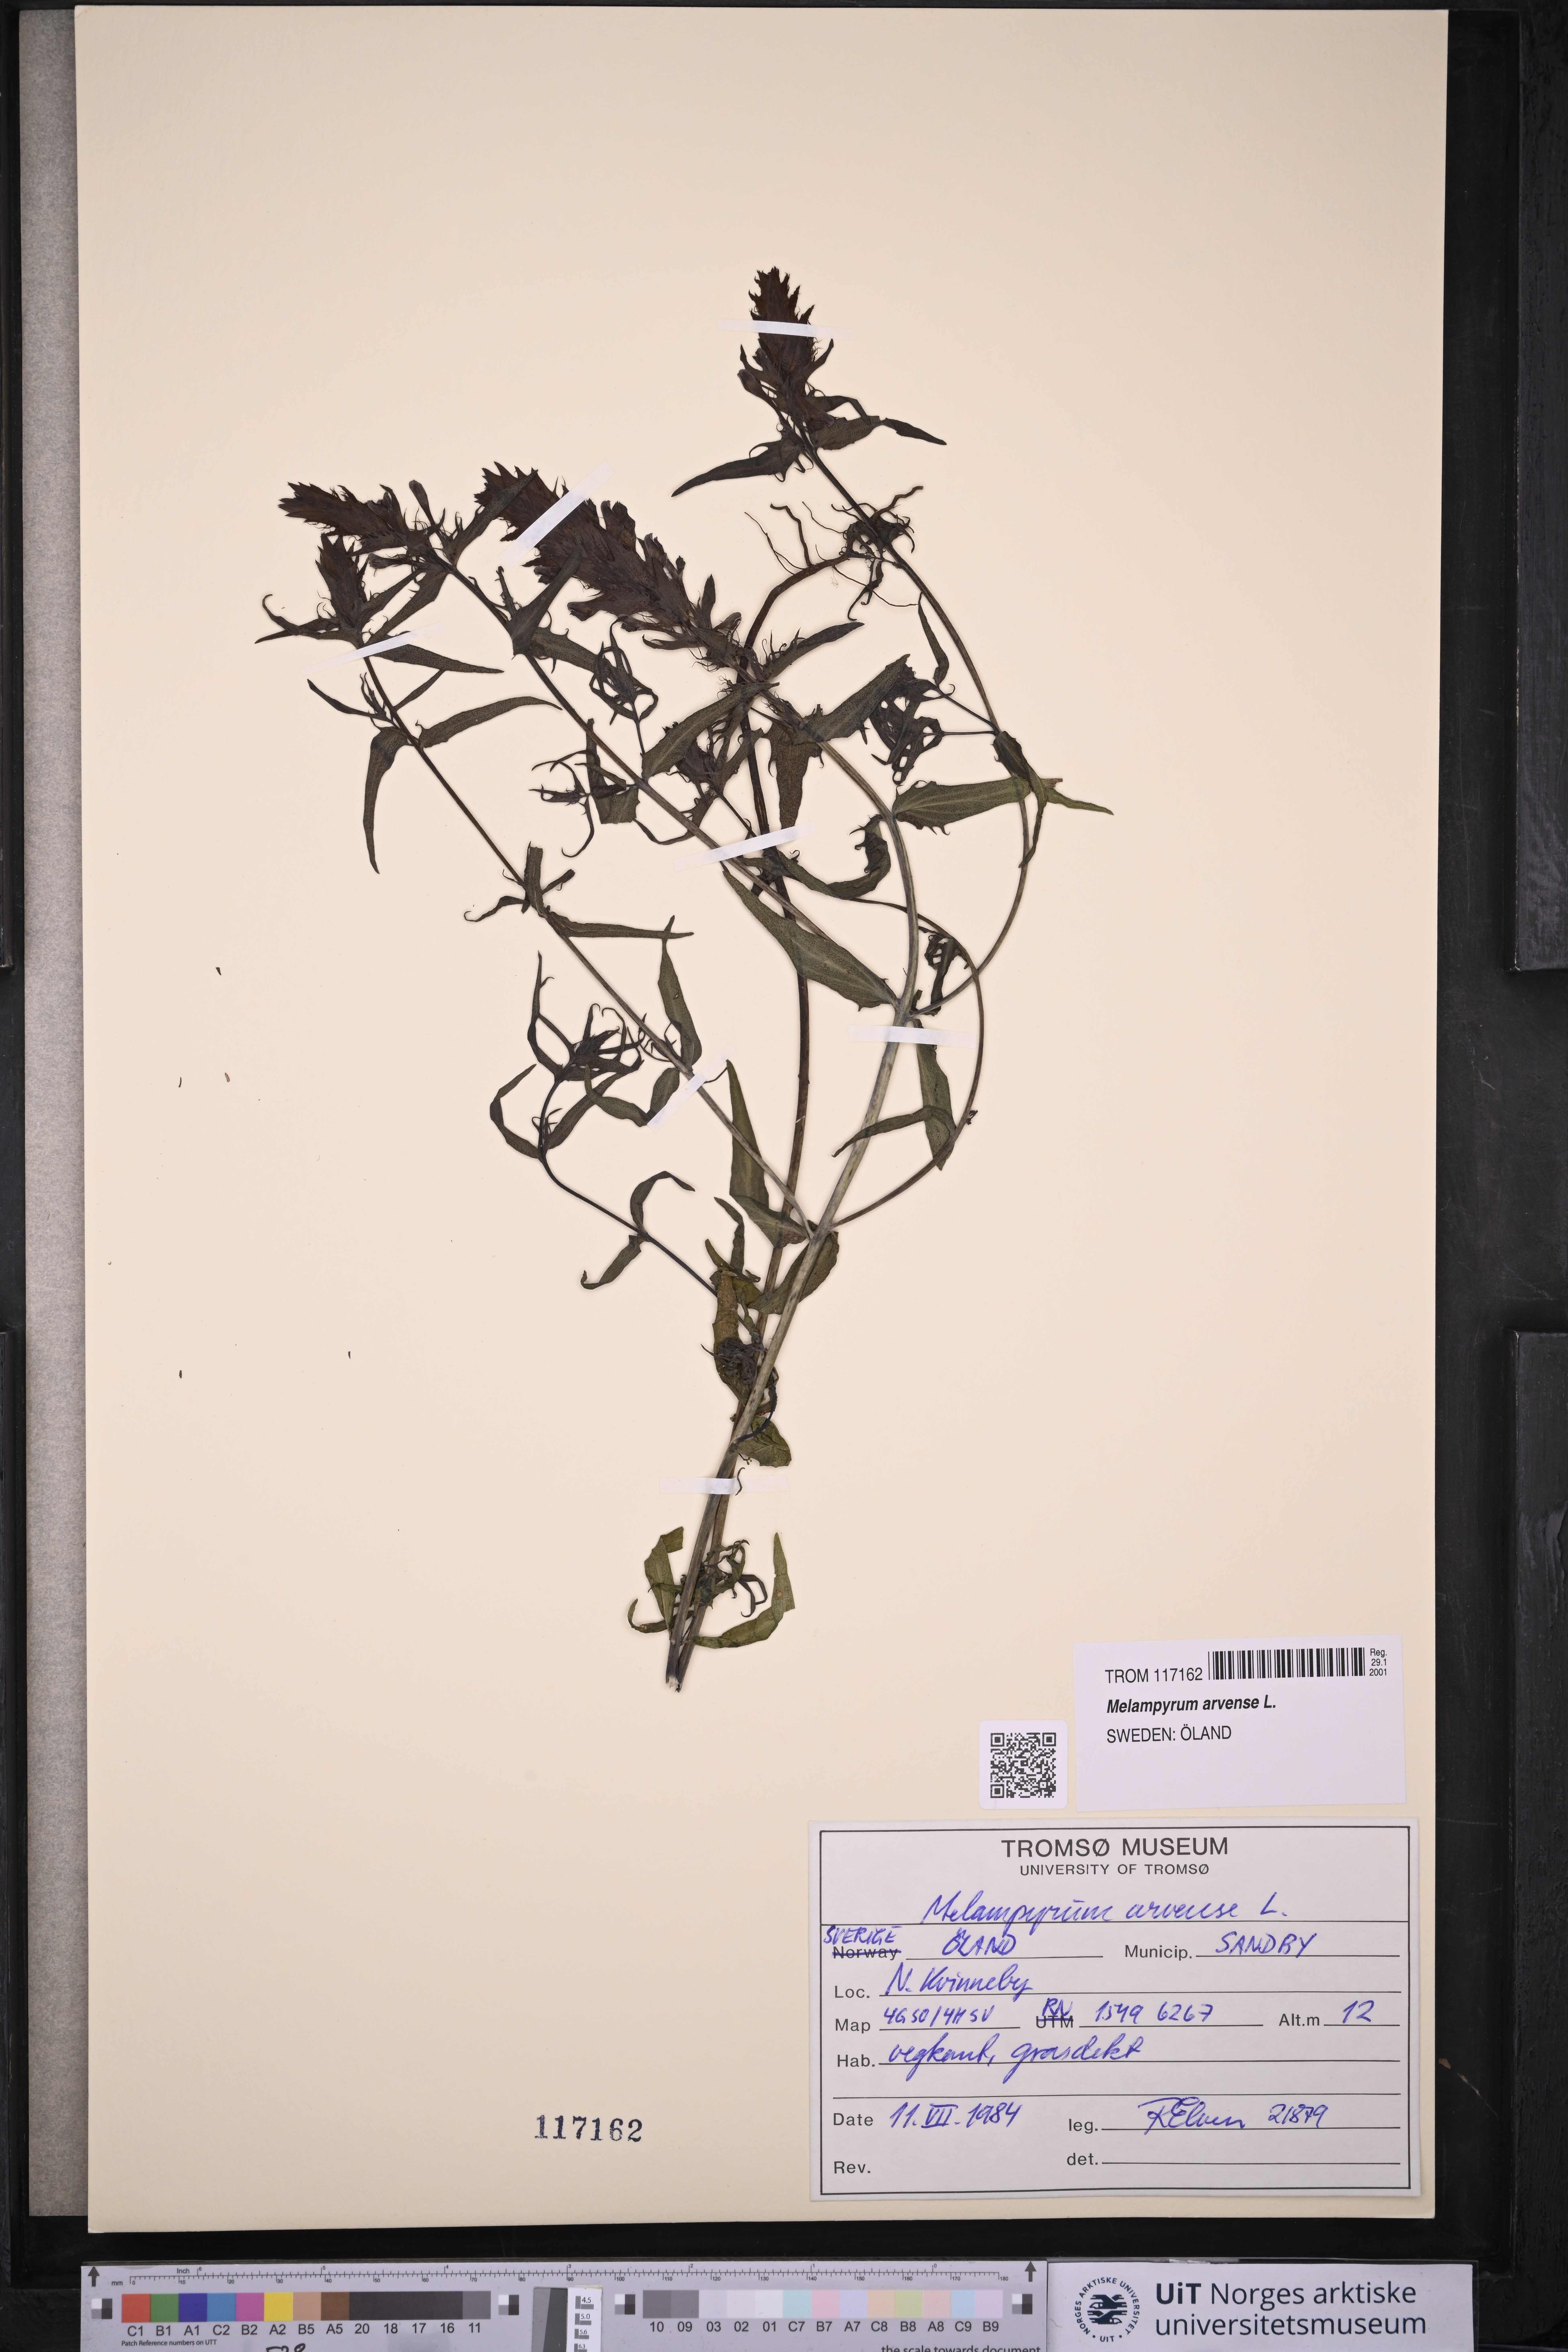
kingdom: Plantae
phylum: Tracheophyta
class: Magnoliopsida
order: Lamiales
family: Orobanchaceae
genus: Melampyrum
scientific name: Melampyrum arvense
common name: Field cow-wheat
